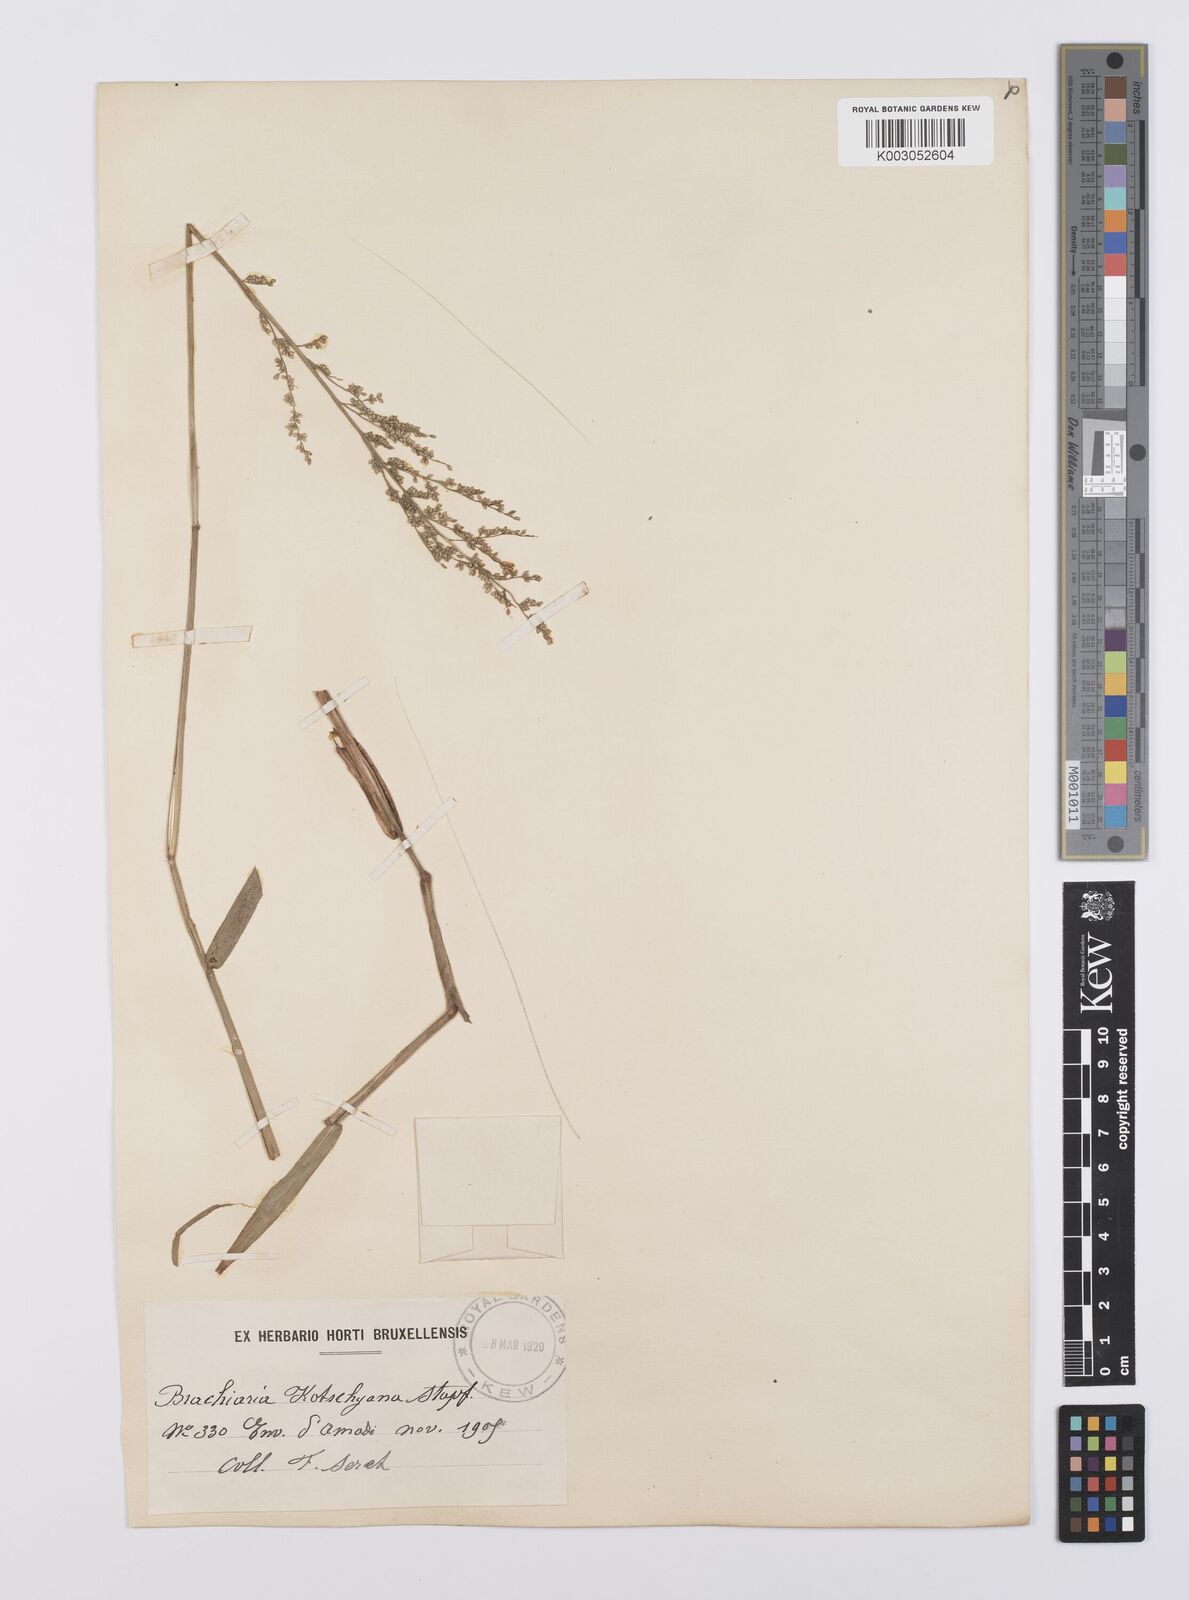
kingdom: Plantae
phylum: Tracheophyta
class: Liliopsida
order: Poales
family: Poaceae
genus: Urochloa
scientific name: Urochloa comata
